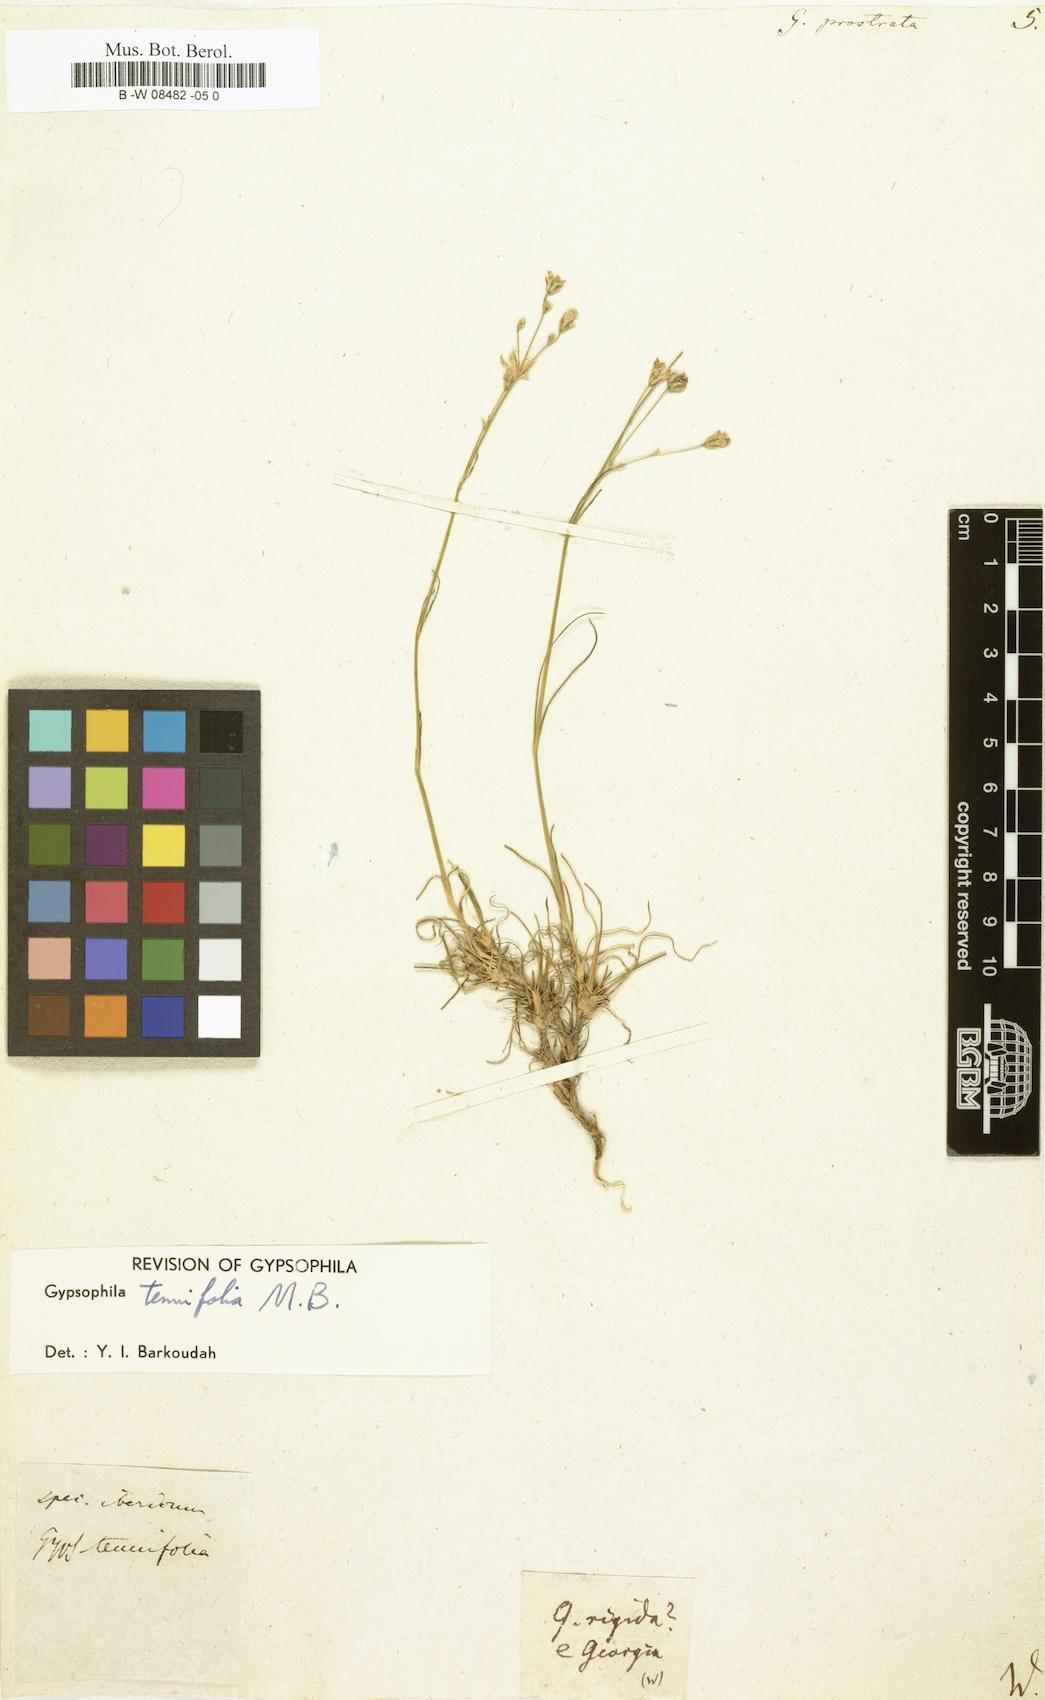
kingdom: Plantae
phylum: Tracheophyta
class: Magnoliopsida
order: Caryophyllales
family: Caryophyllaceae
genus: Gypsophila
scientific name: Gypsophila prostrata
